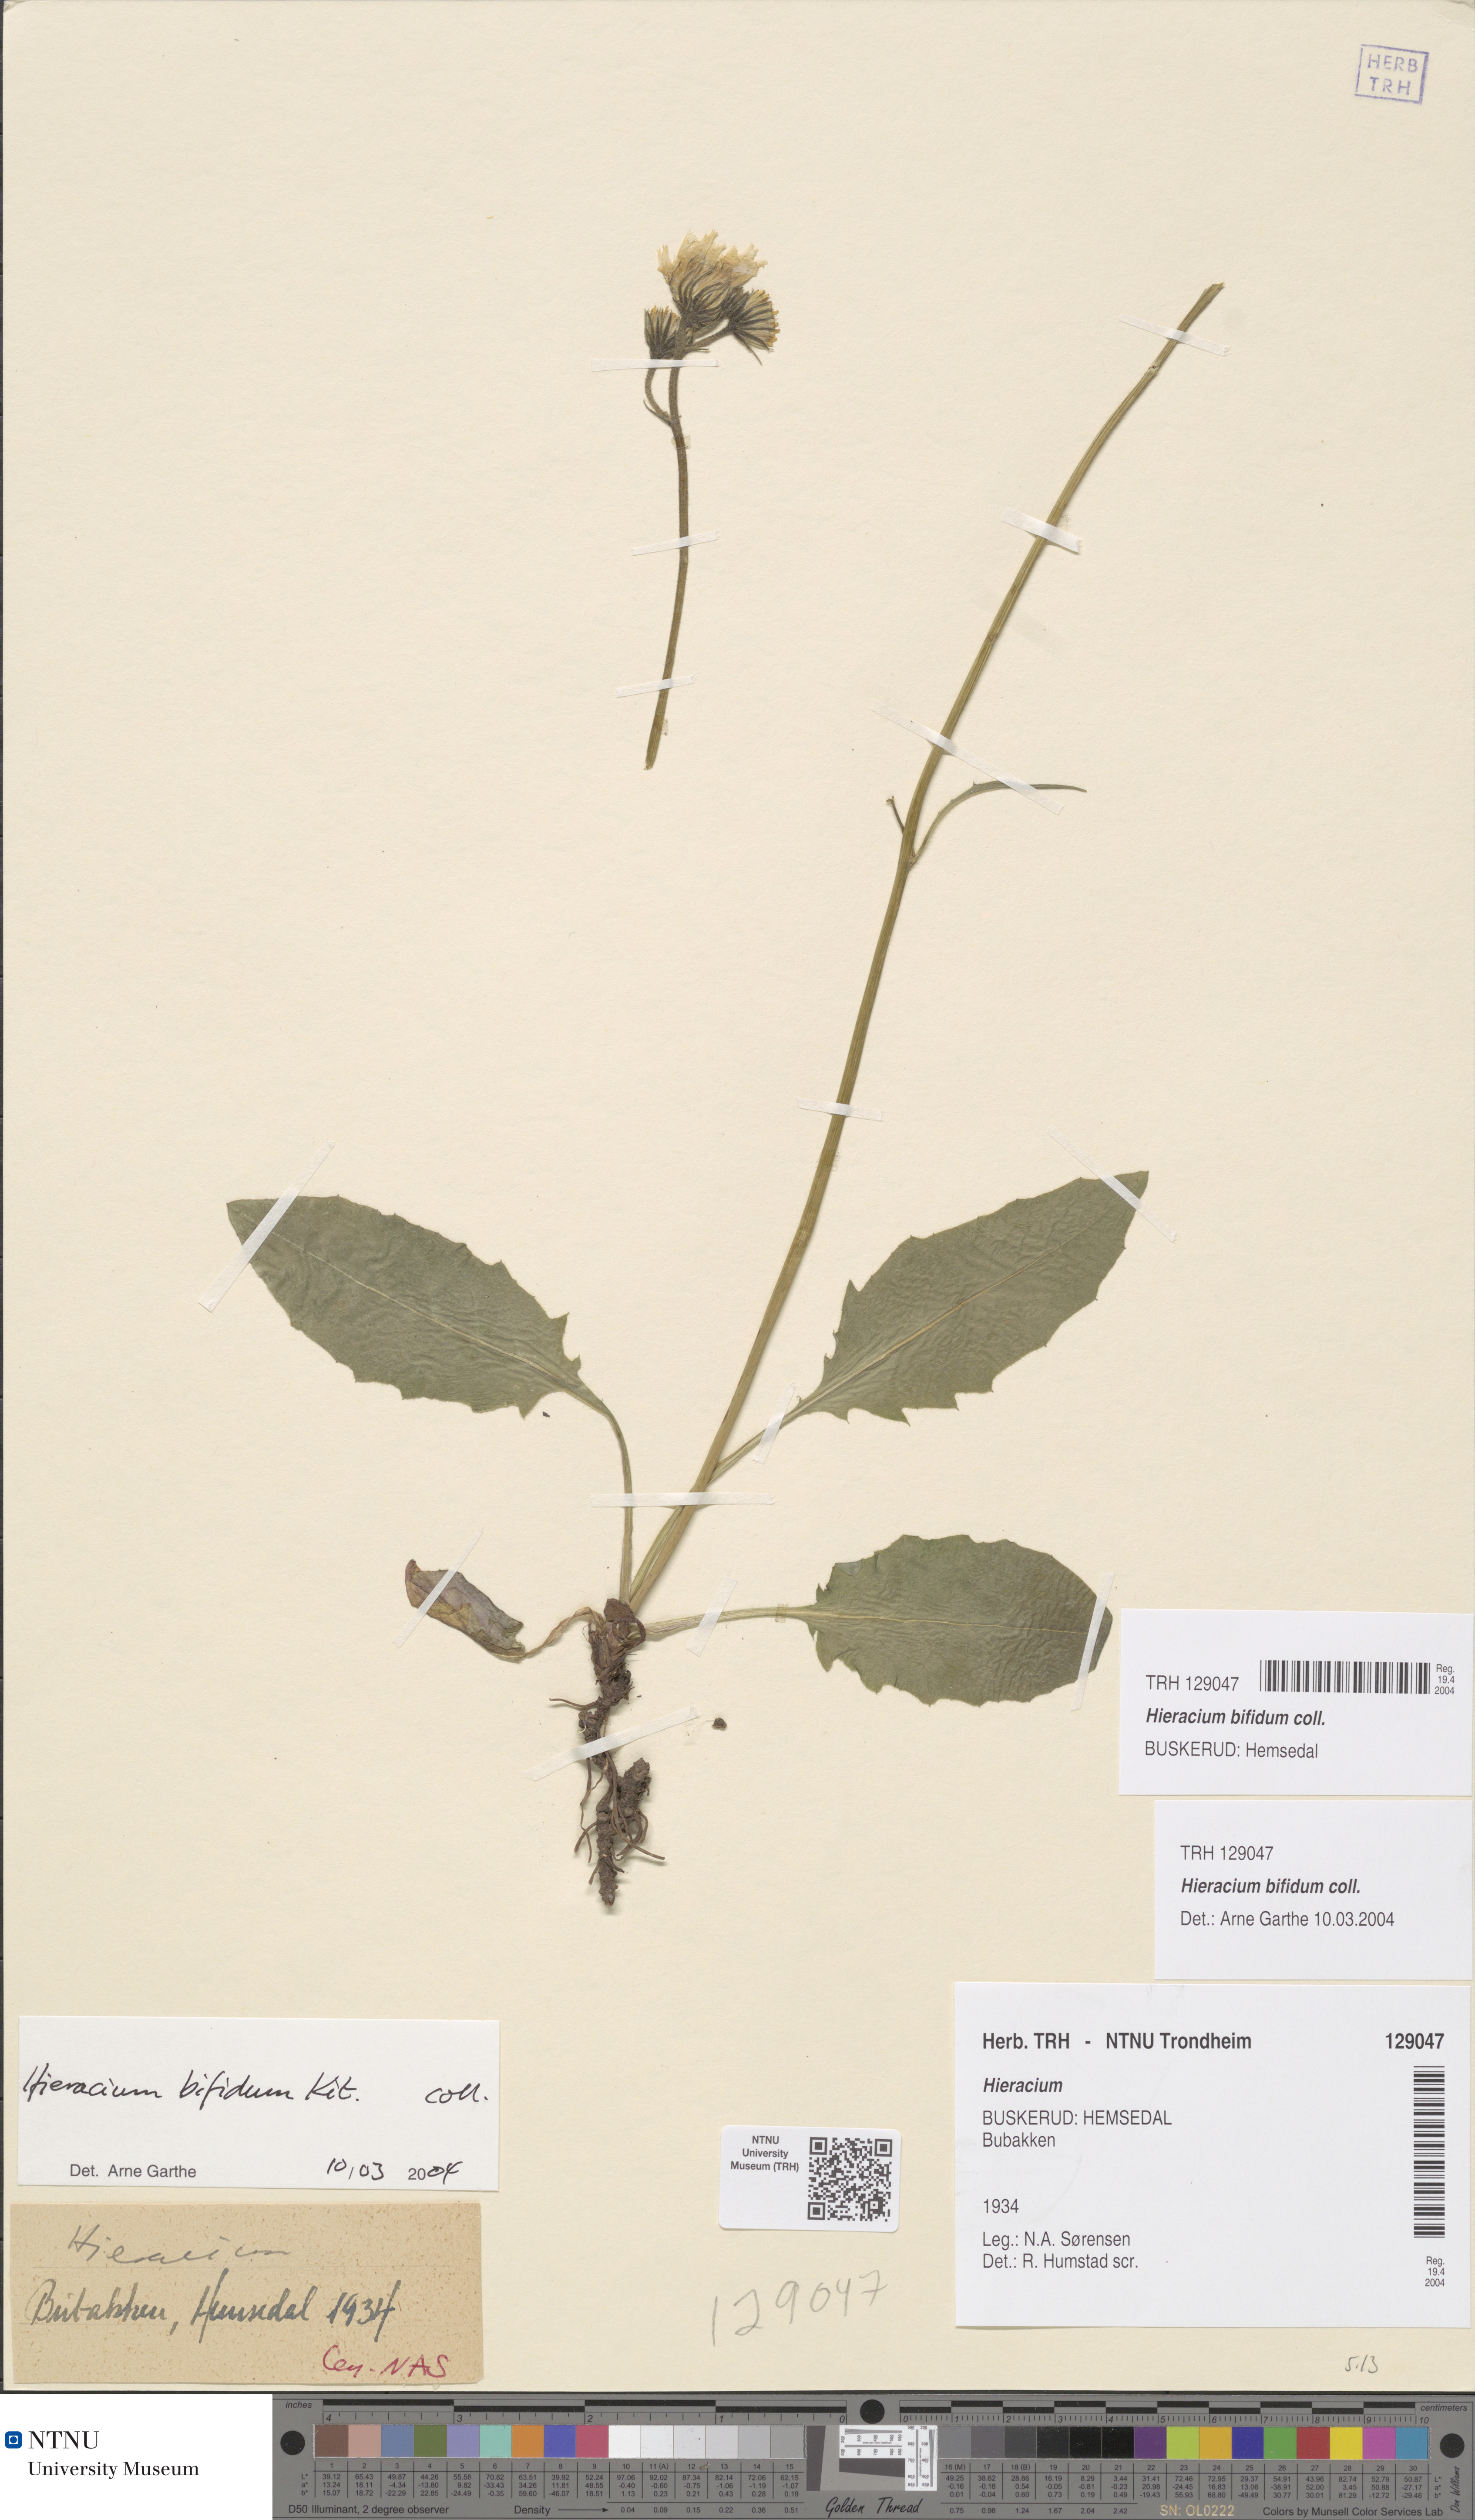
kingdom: Plantae
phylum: Tracheophyta
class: Magnoliopsida
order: Asterales
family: Asteraceae
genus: Hieracium
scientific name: Hieracium bifidum
